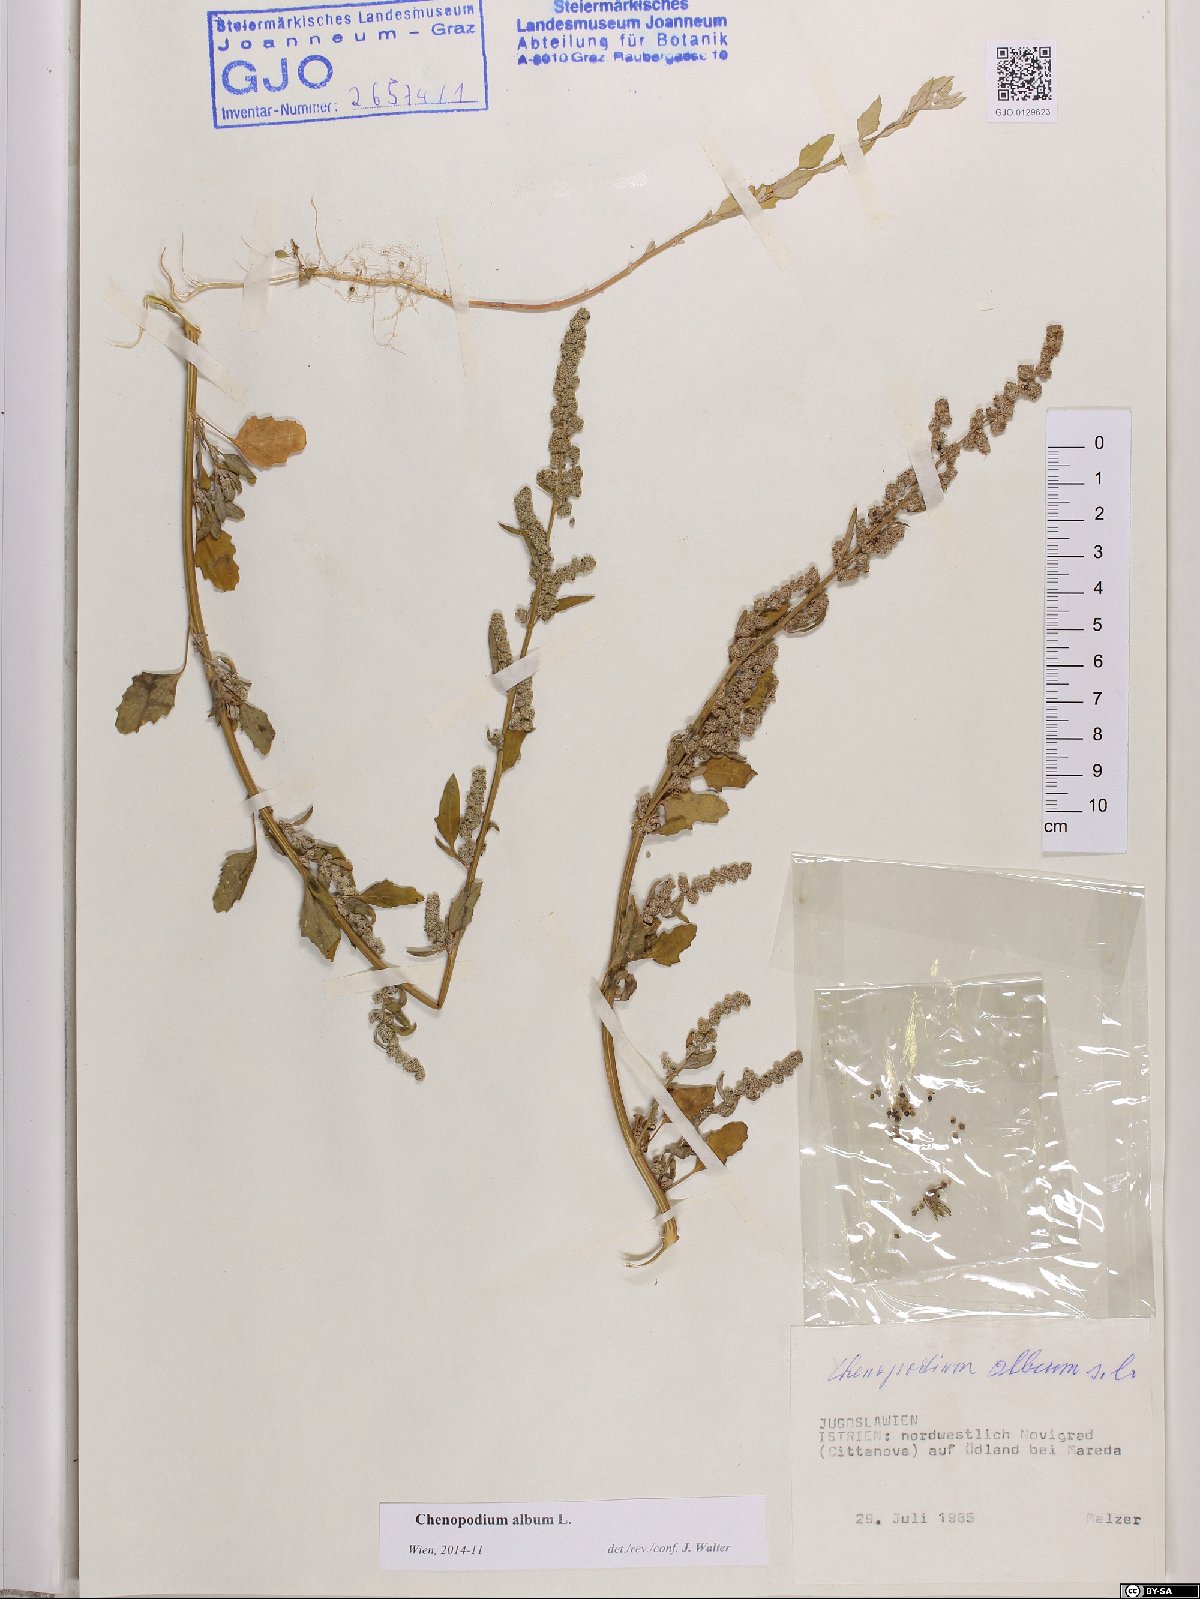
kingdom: Plantae
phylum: Tracheophyta
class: Magnoliopsida
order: Caryophyllales
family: Amaranthaceae
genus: Chenopodium
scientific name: Chenopodium album
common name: Fat-hen
